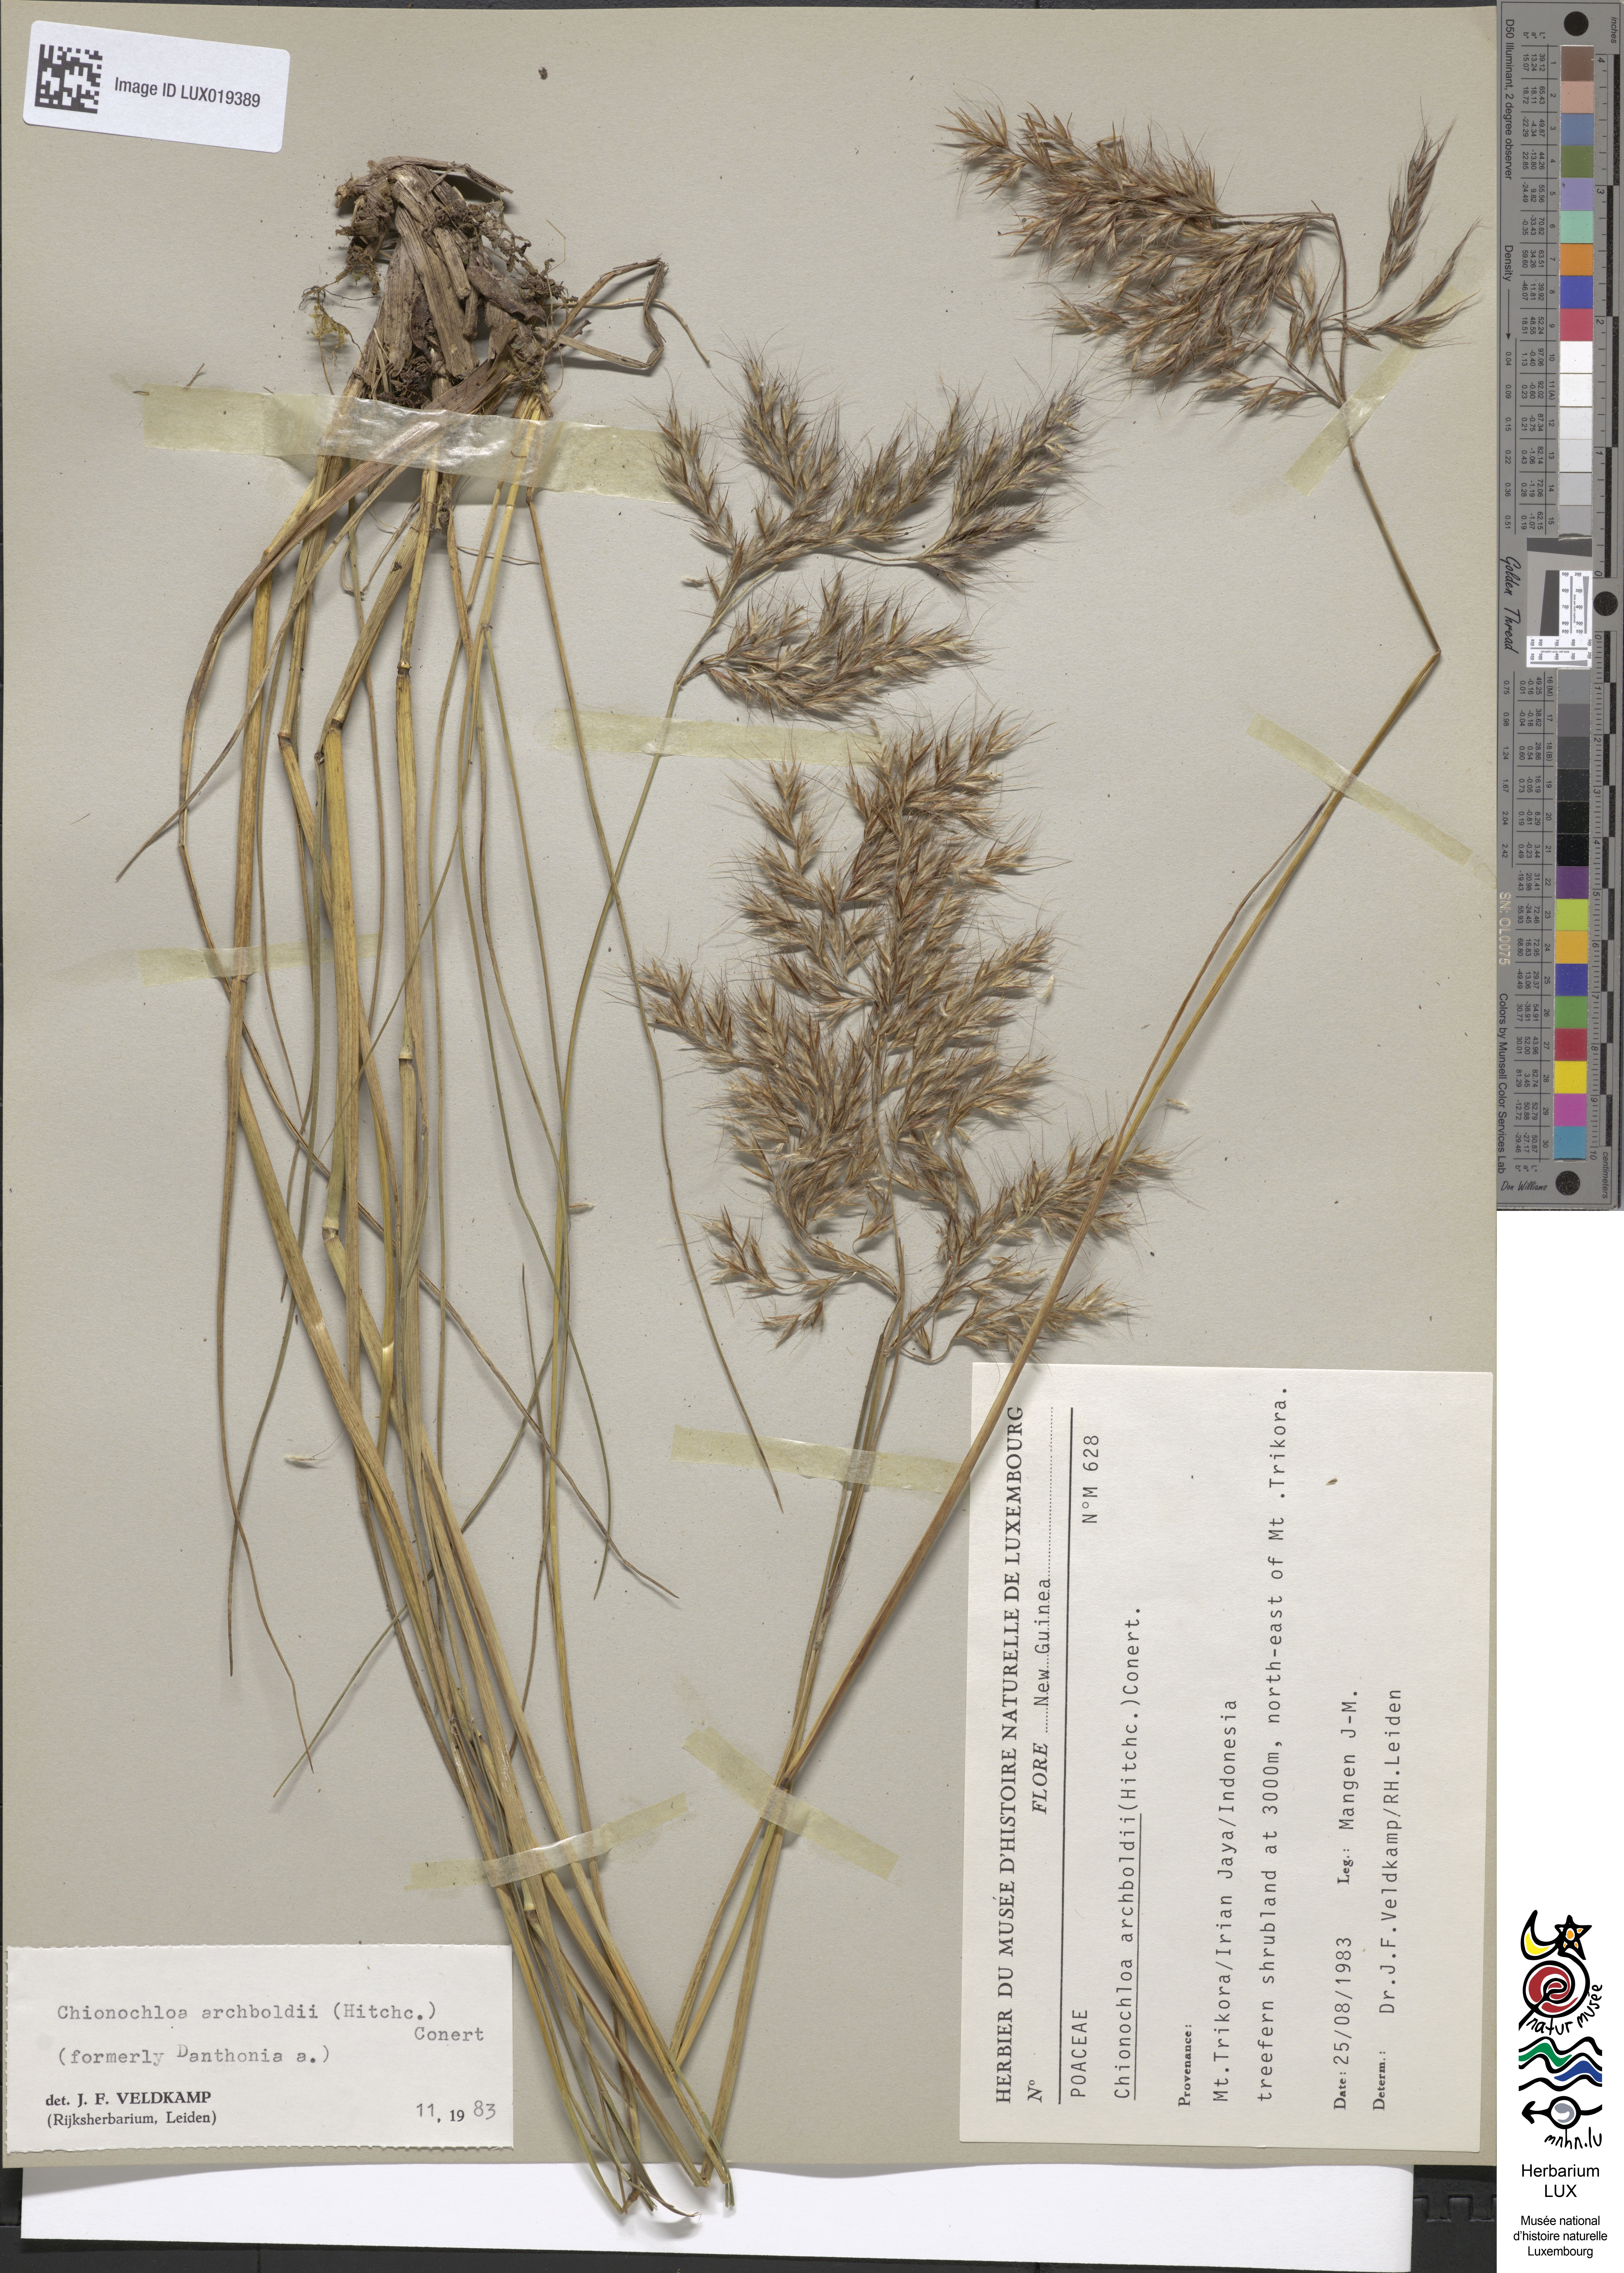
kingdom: Plantae
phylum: Tracheophyta
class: Liliopsida
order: Poales
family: Poaceae
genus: Chimaerochloa
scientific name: Chimaerochloa archboldii
